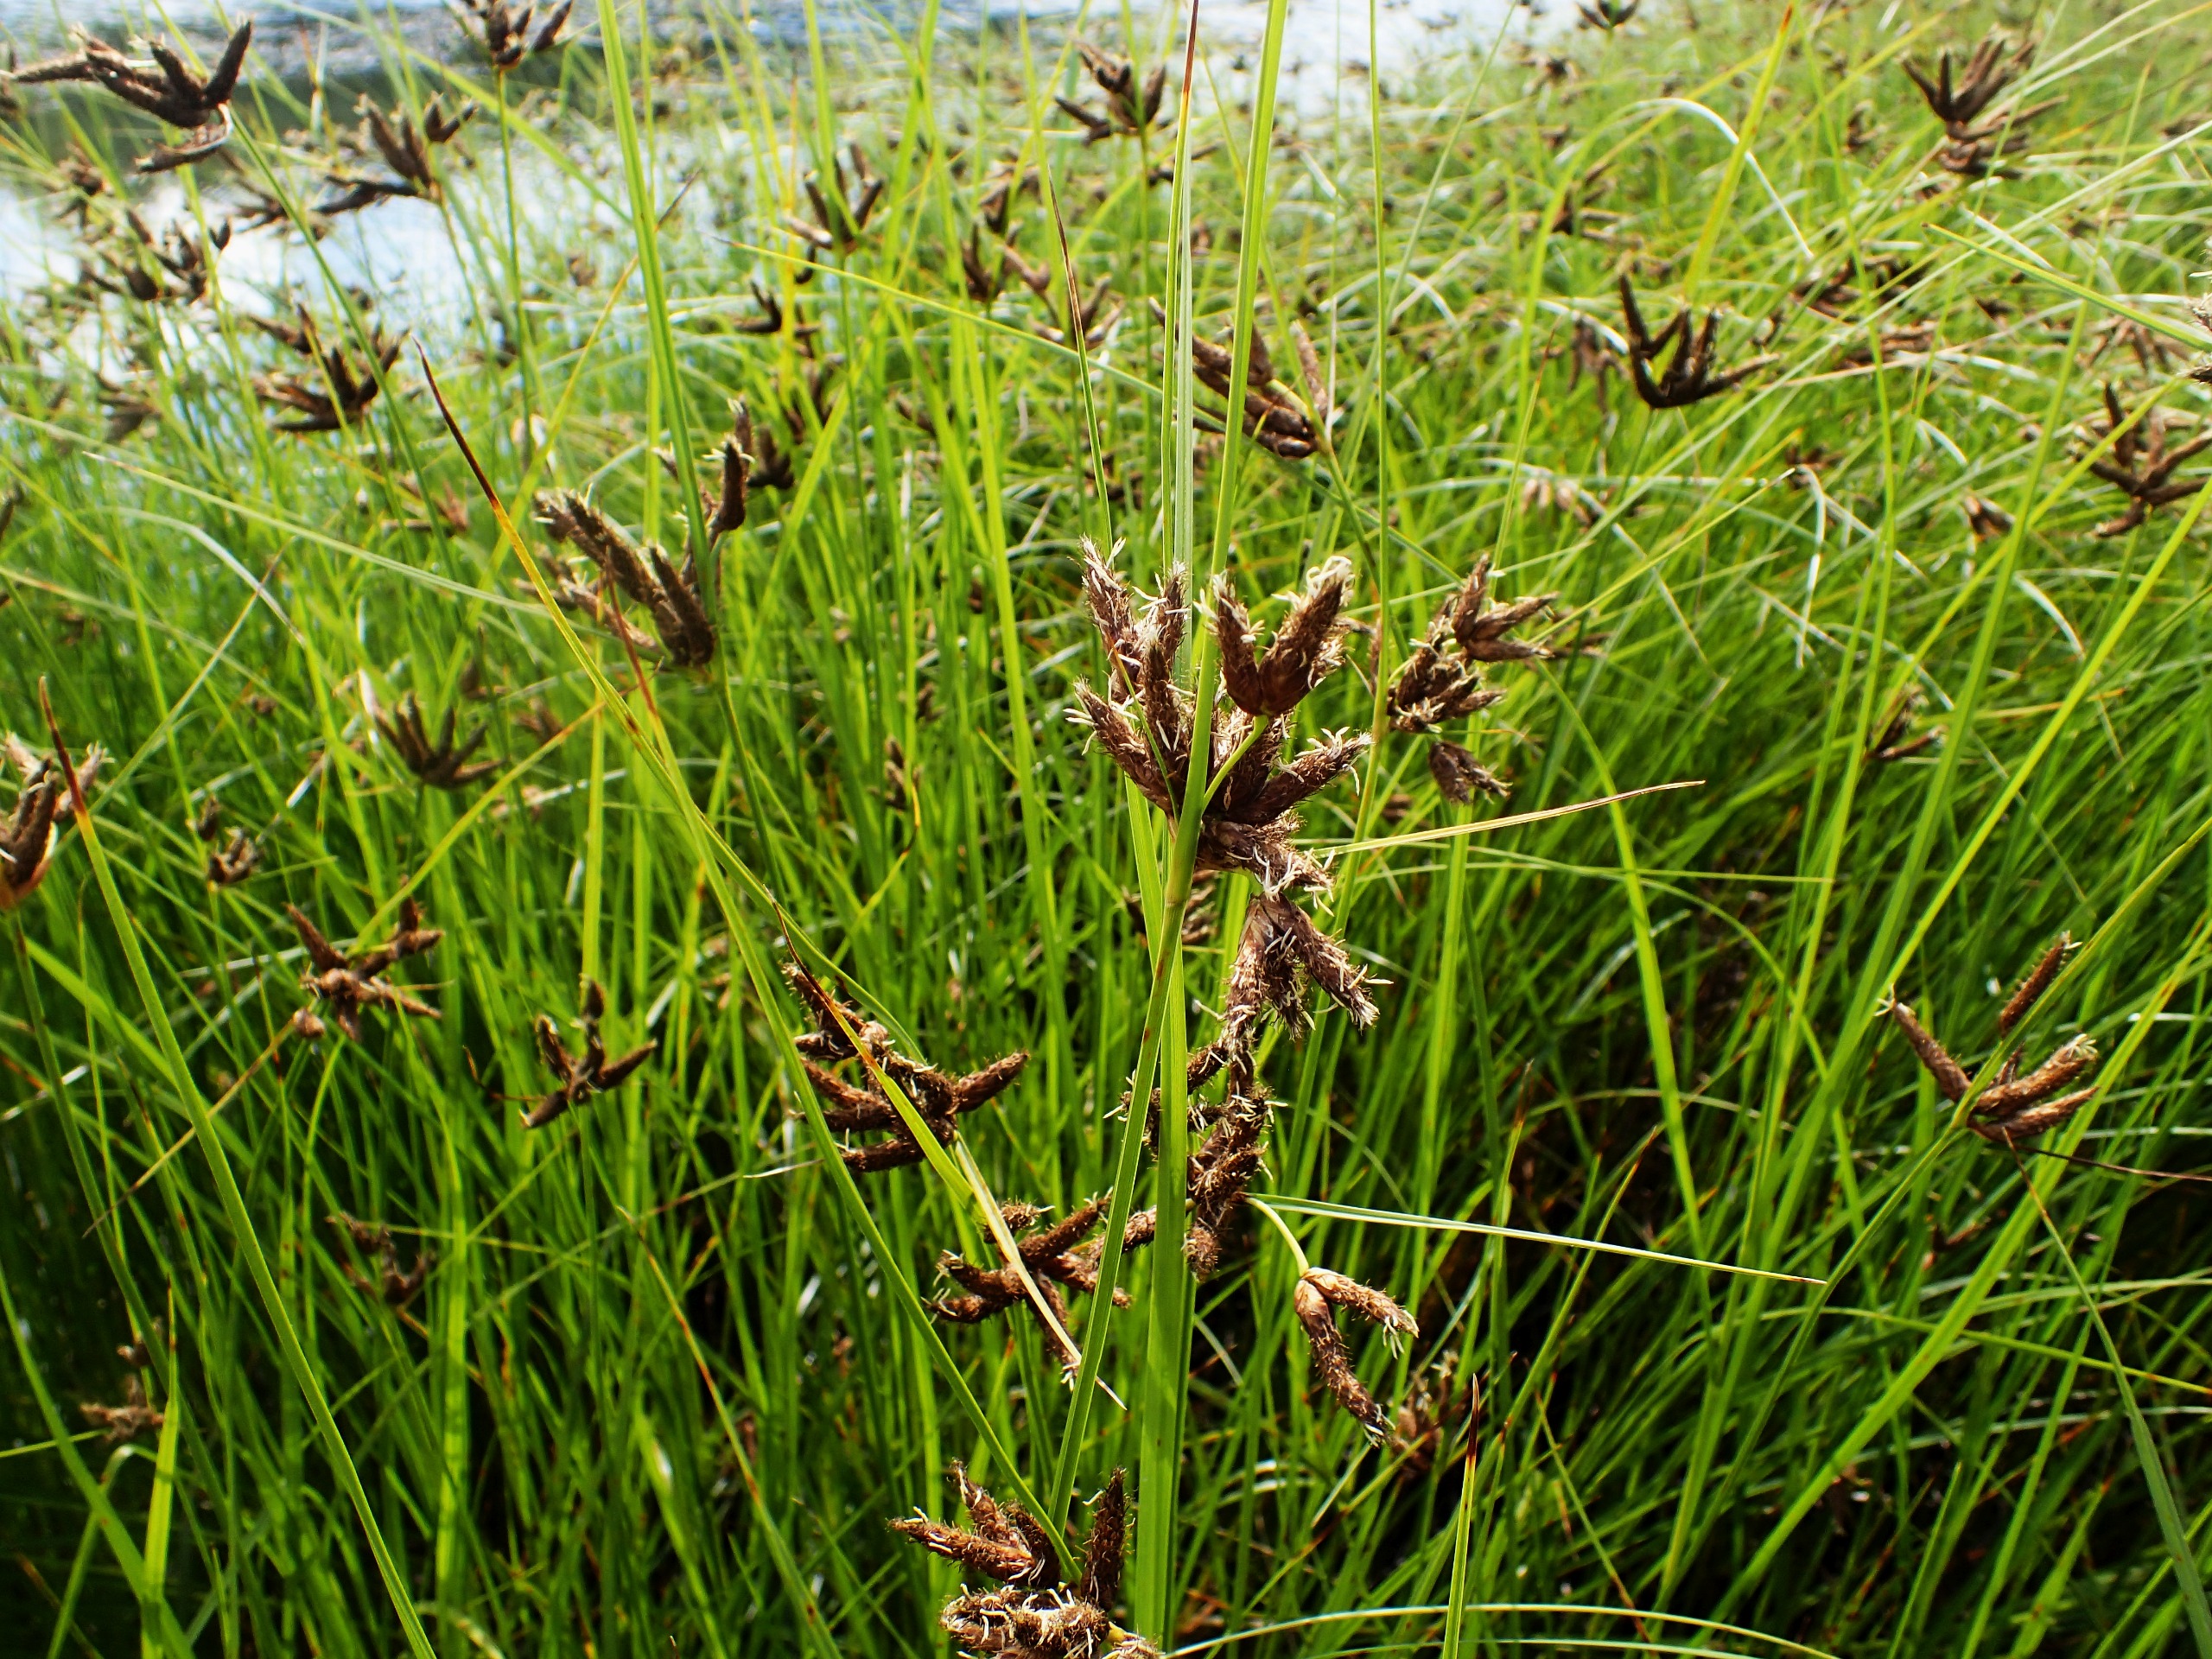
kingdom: Plantae
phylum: Tracheophyta
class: Liliopsida
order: Poales
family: Cyperaceae
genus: Bolboschoenus
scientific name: Bolboschoenus maritimus
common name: Strand-kogleaks
